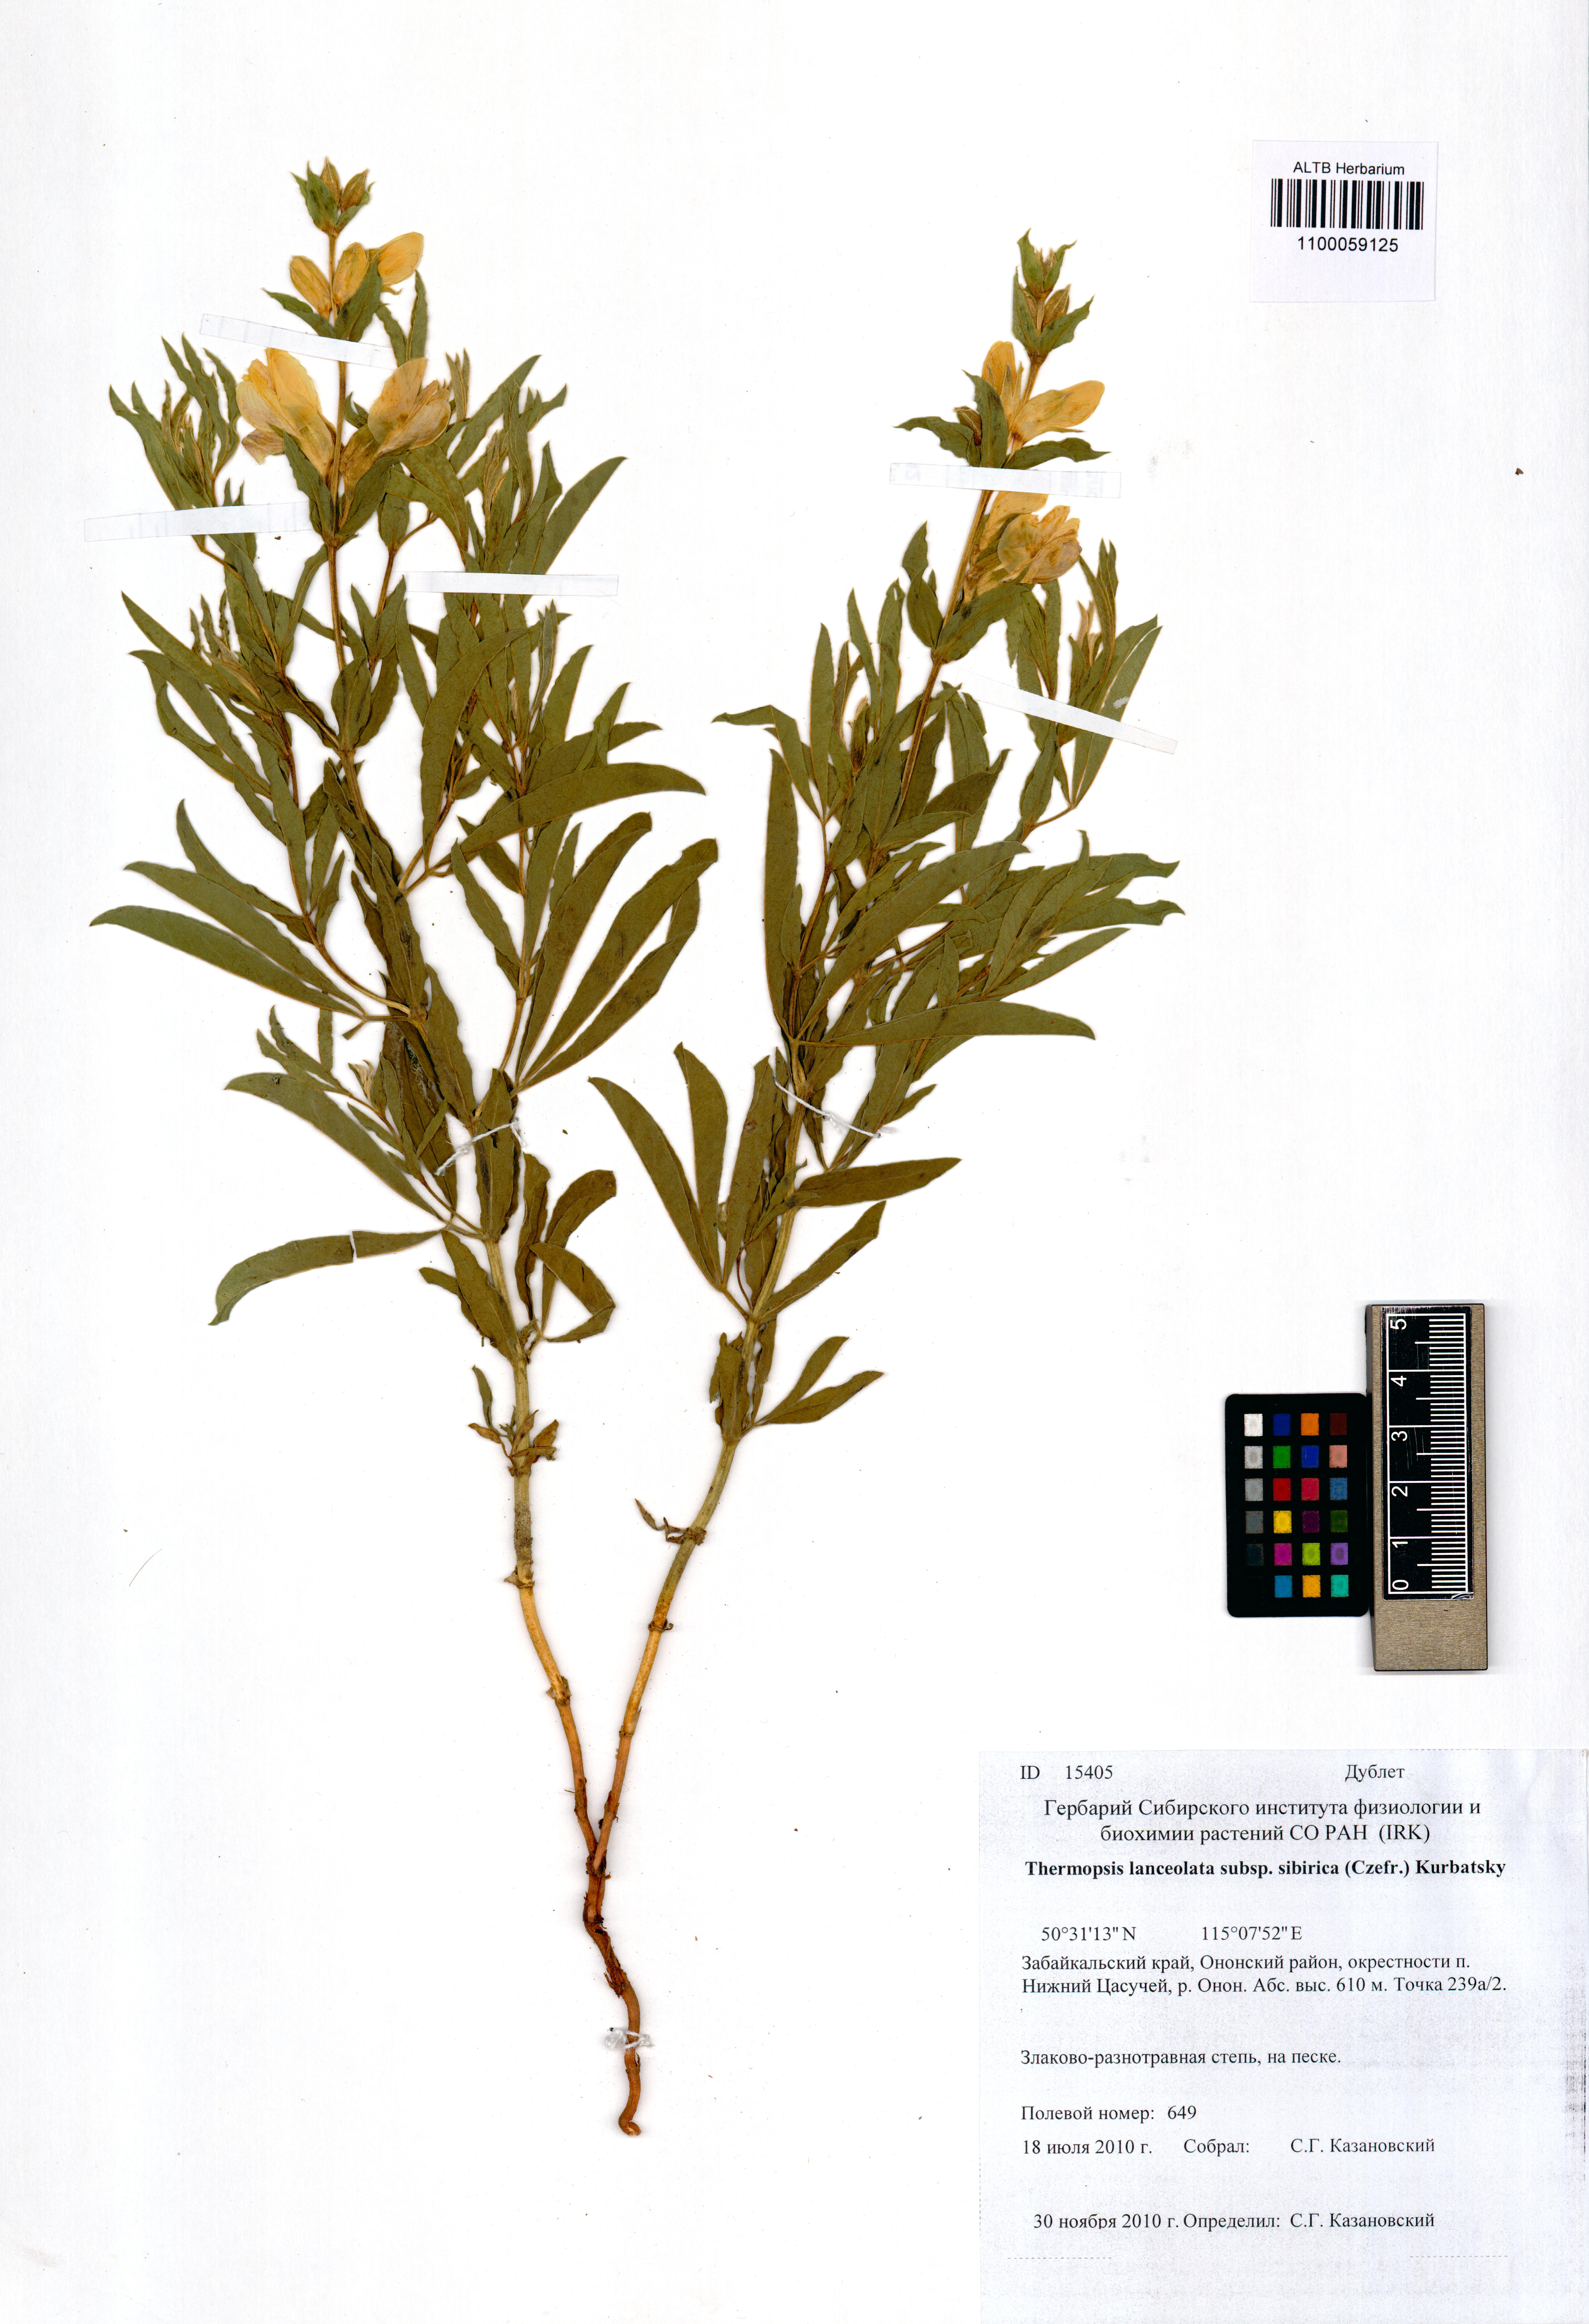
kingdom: Plantae
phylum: Tracheophyta
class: Magnoliopsida
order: Fabales
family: Fabaceae
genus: Thermopsis
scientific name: Thermopsis lanceolata
